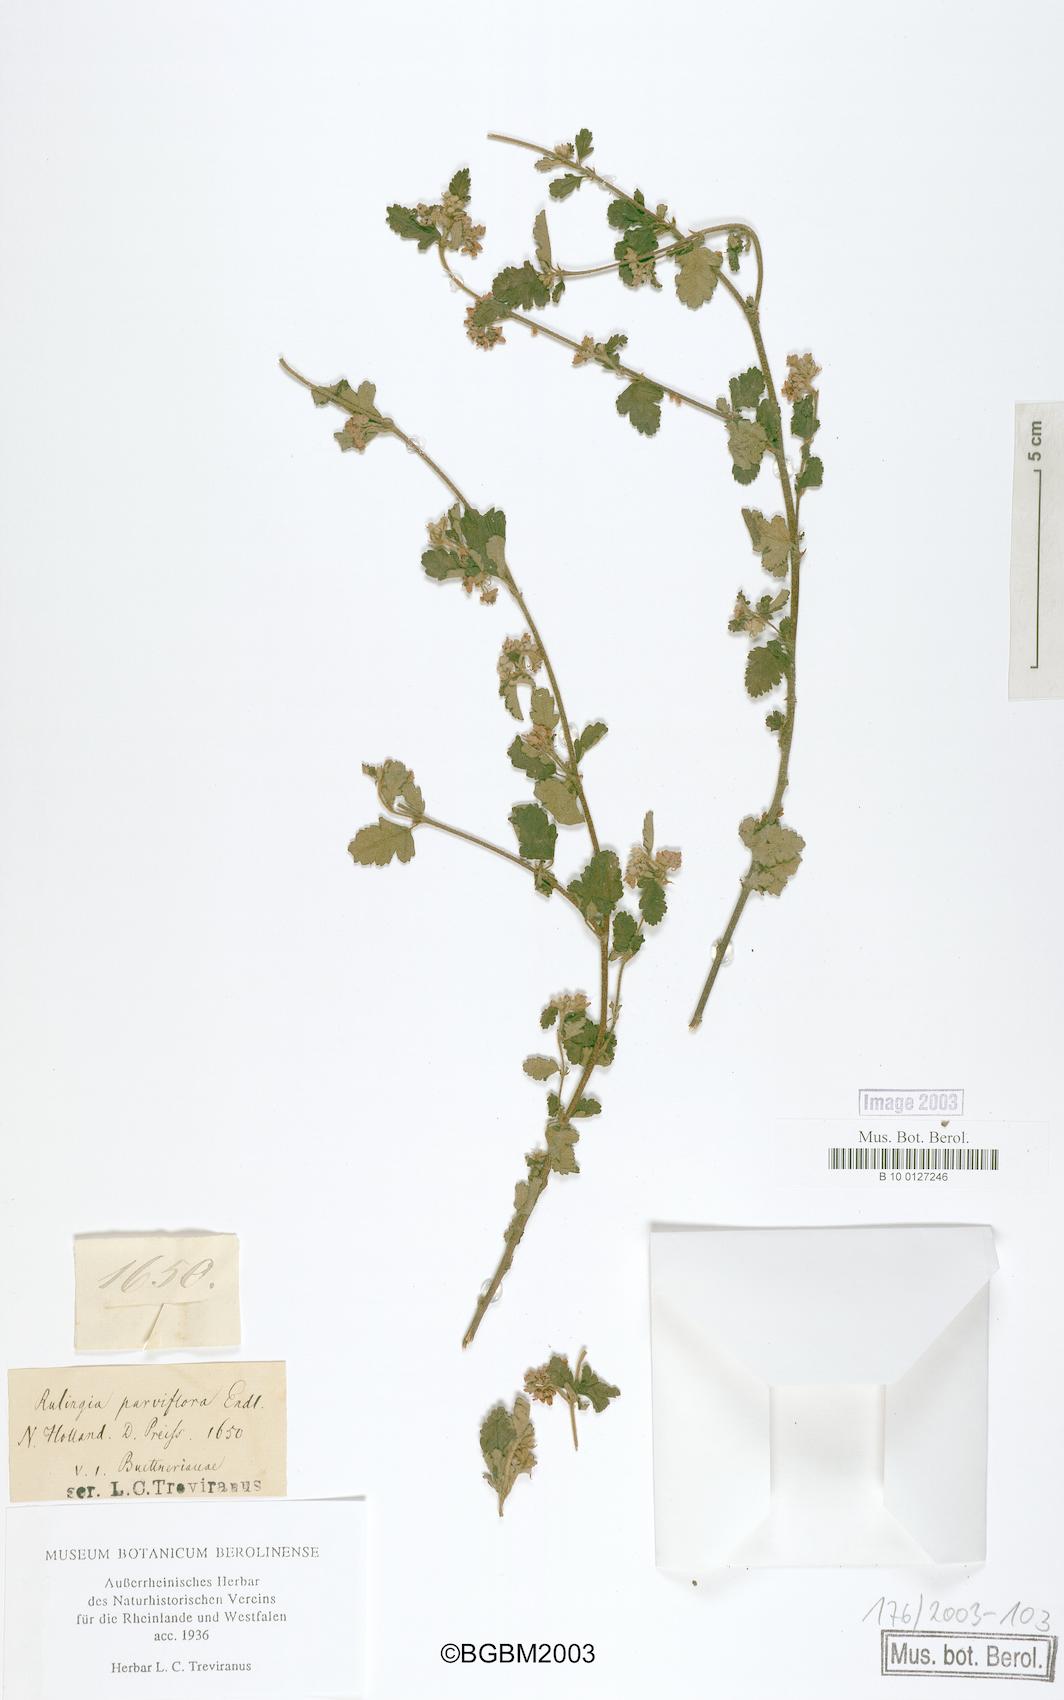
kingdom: Plantae
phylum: Tracheophyta
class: Magnoliopsida
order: Malvales
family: Malvaceae
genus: Commersonia
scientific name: Commersonia parviflora
